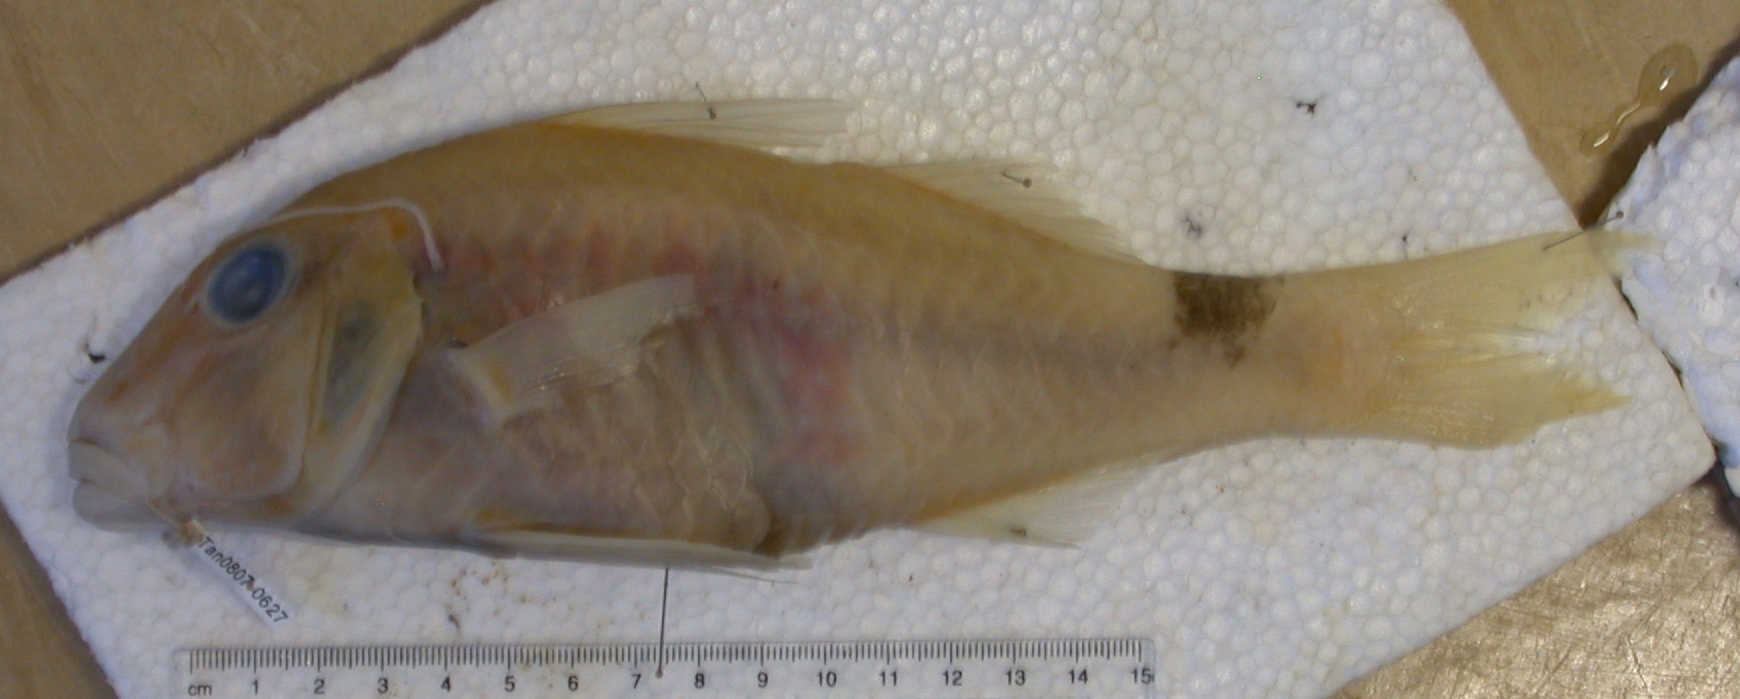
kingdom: Animalia
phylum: Chordata
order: Perciformes
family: Mullidae
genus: Parupeneus
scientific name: Parupeneus rubescens
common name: Rosy goatfish
